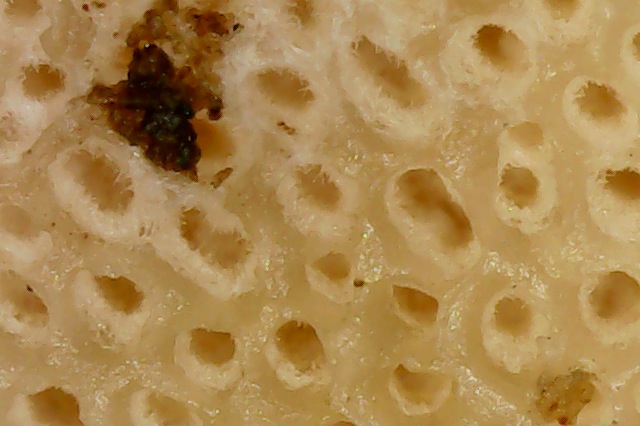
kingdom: Fungi
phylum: Basidiomycota
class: Agaricomycetes
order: Polyporales
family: Ischnodermataceae
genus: Ischnoderma
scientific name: Ischnoderma benzoinum
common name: gran-tjæreporesvamp
